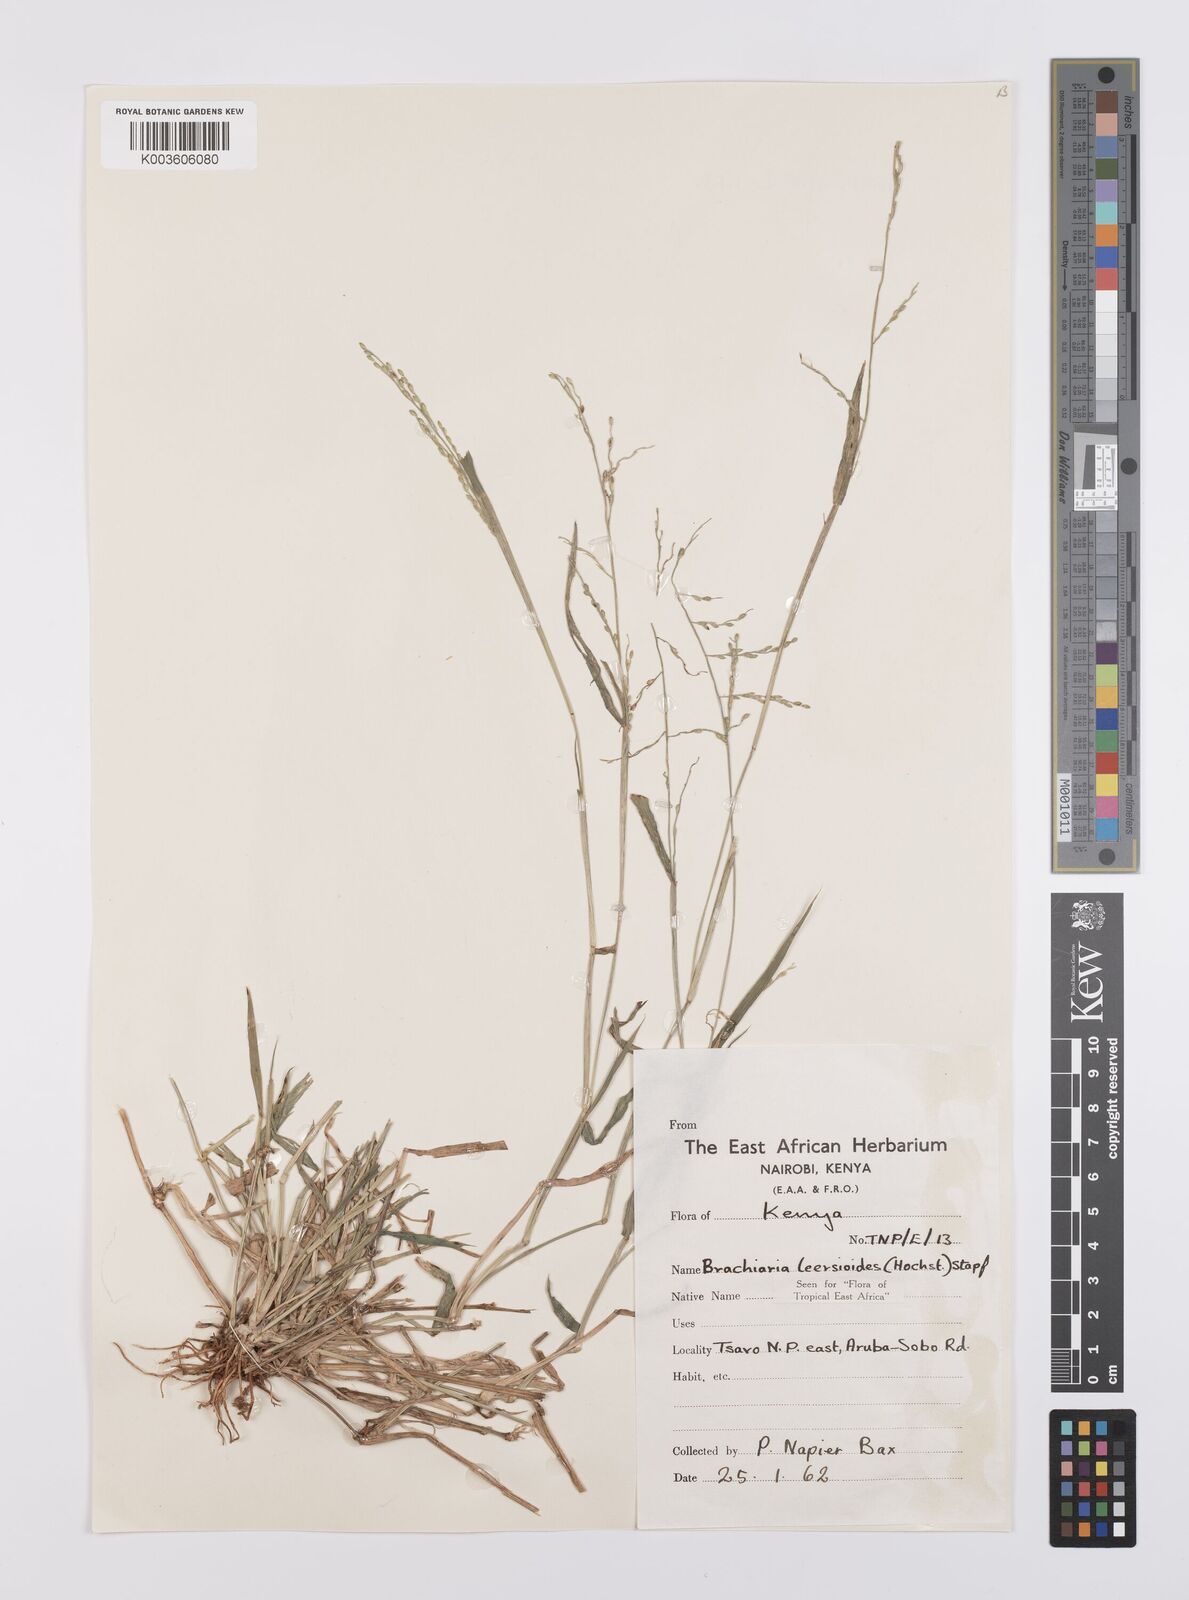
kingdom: Plantae
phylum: Tracheophyta
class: Liliopsida
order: Poales
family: Poaceae
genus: Urochloa
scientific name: Urochloa leersioides
